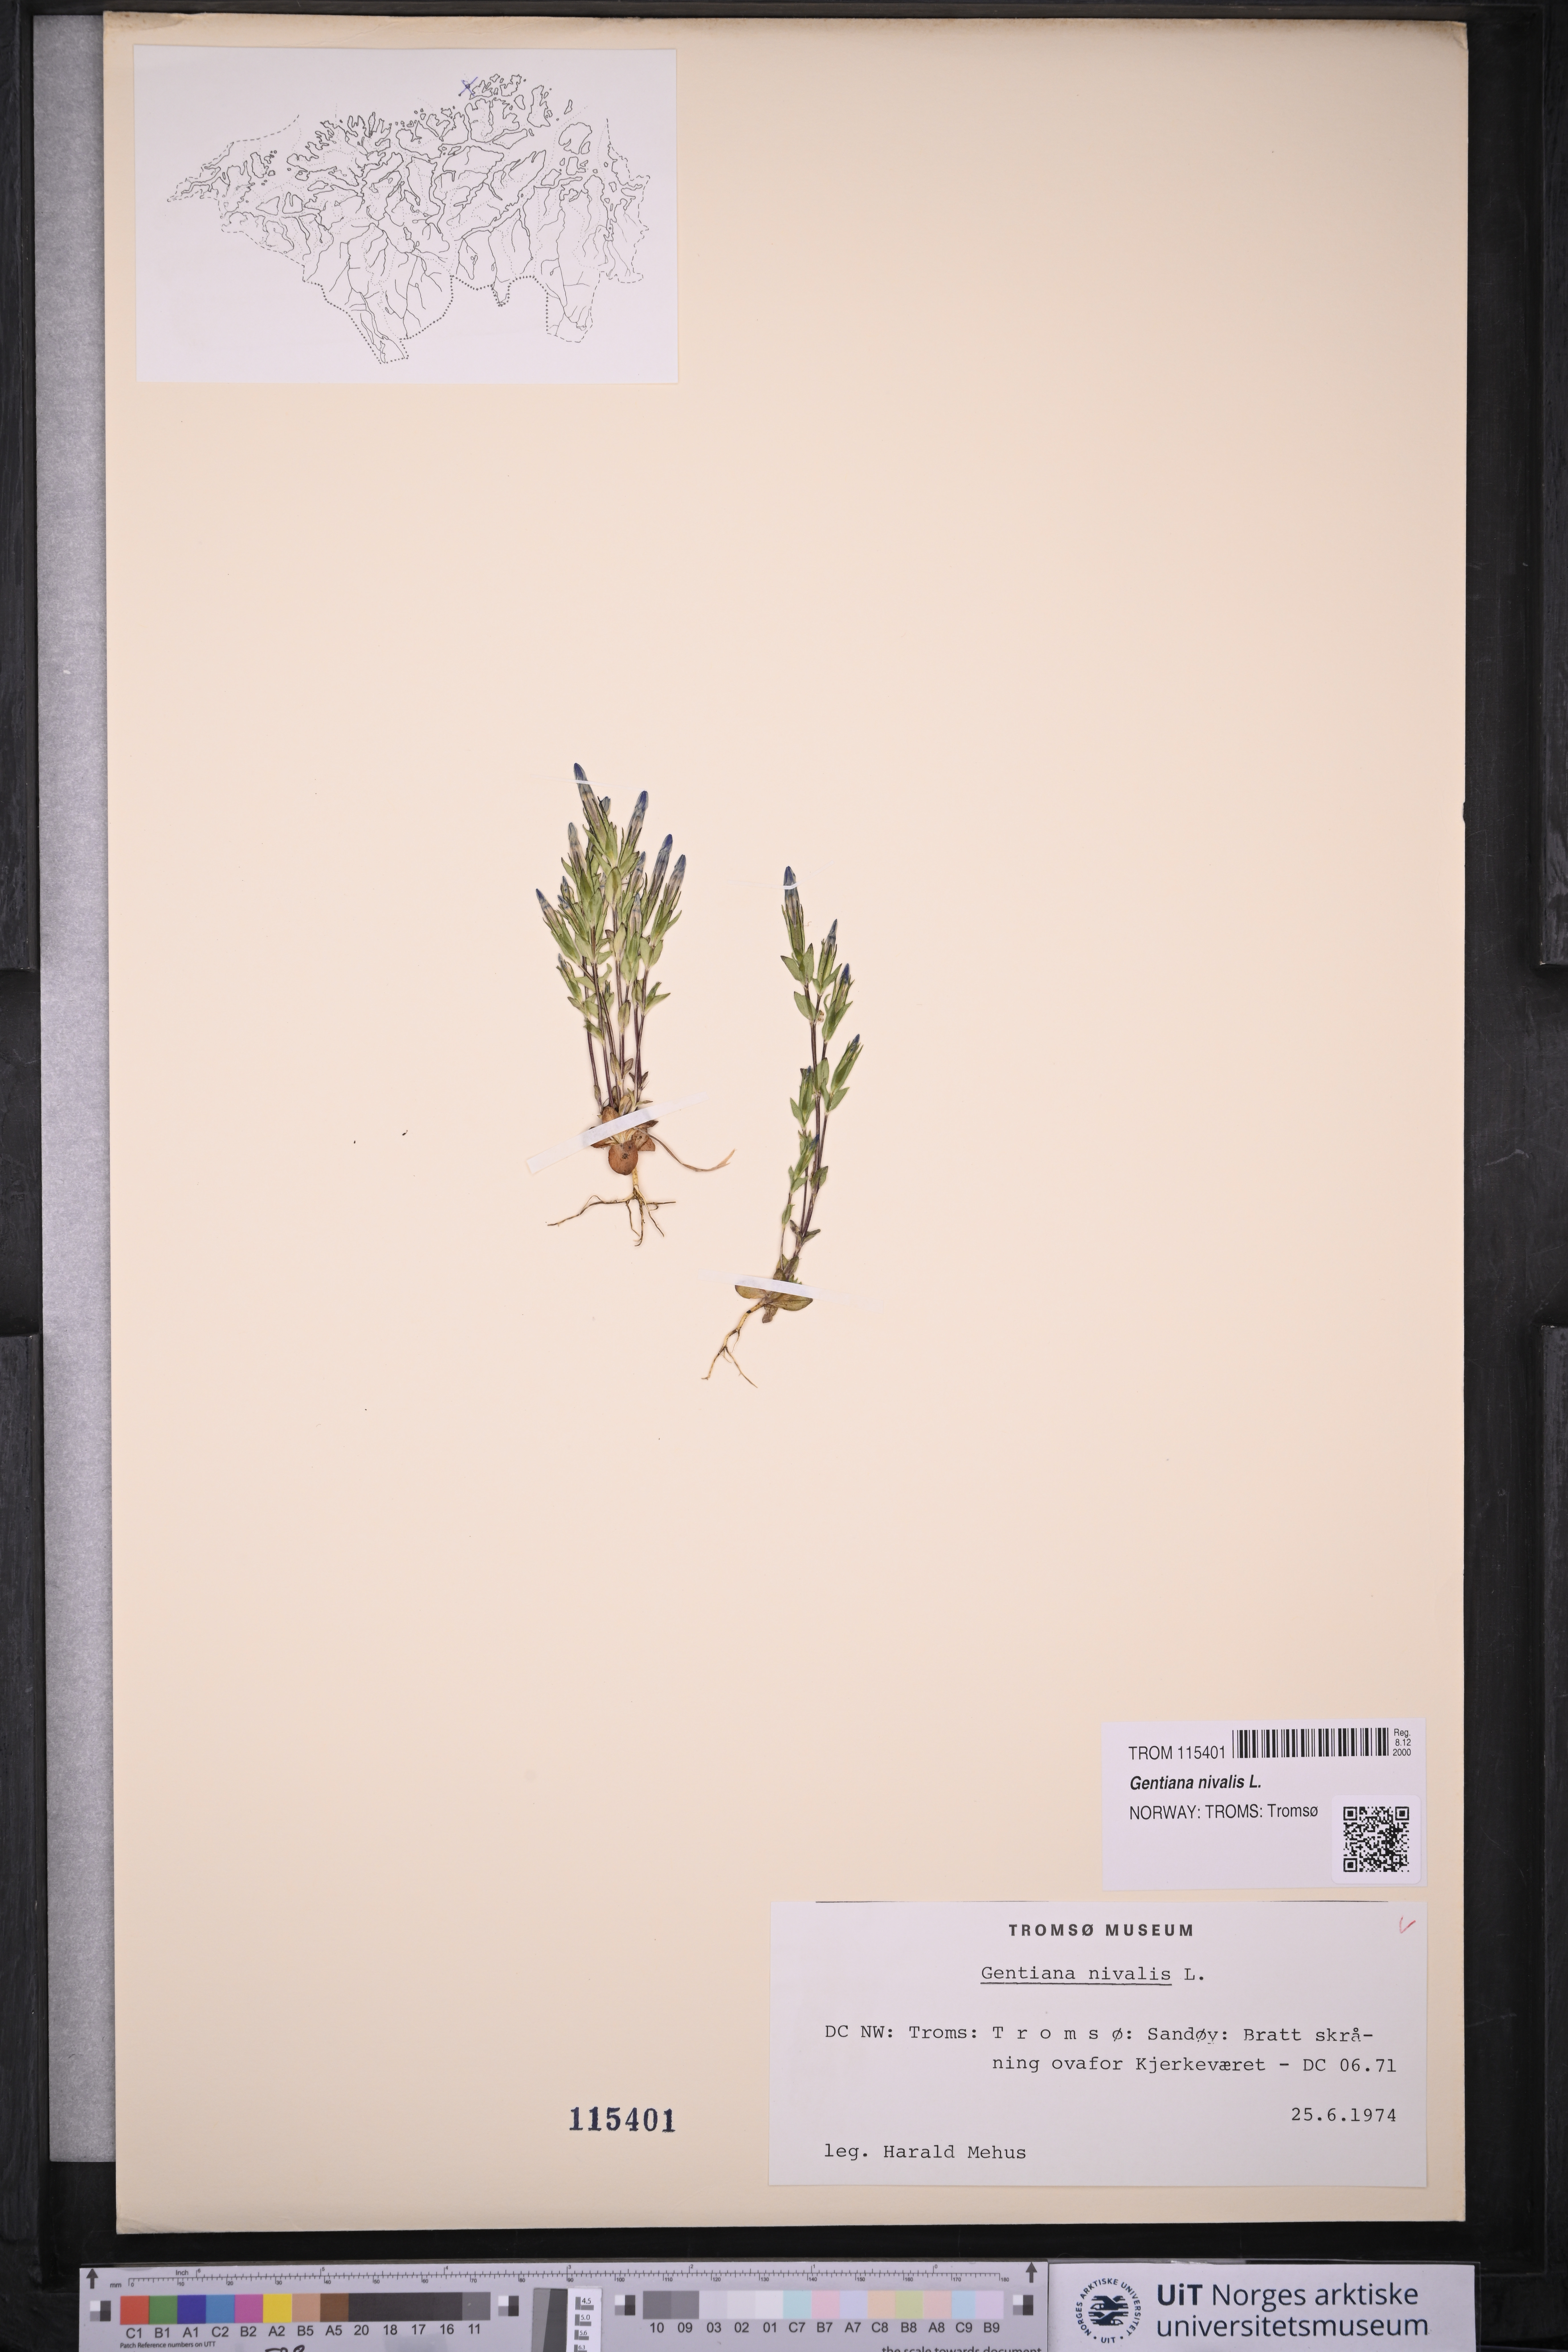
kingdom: Plantae
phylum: Tracheophyta
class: Magnoliopsida
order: Gentianales
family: Gentianaceae
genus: Gentiana
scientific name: Gentiana nivalis
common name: Alpine gentian
